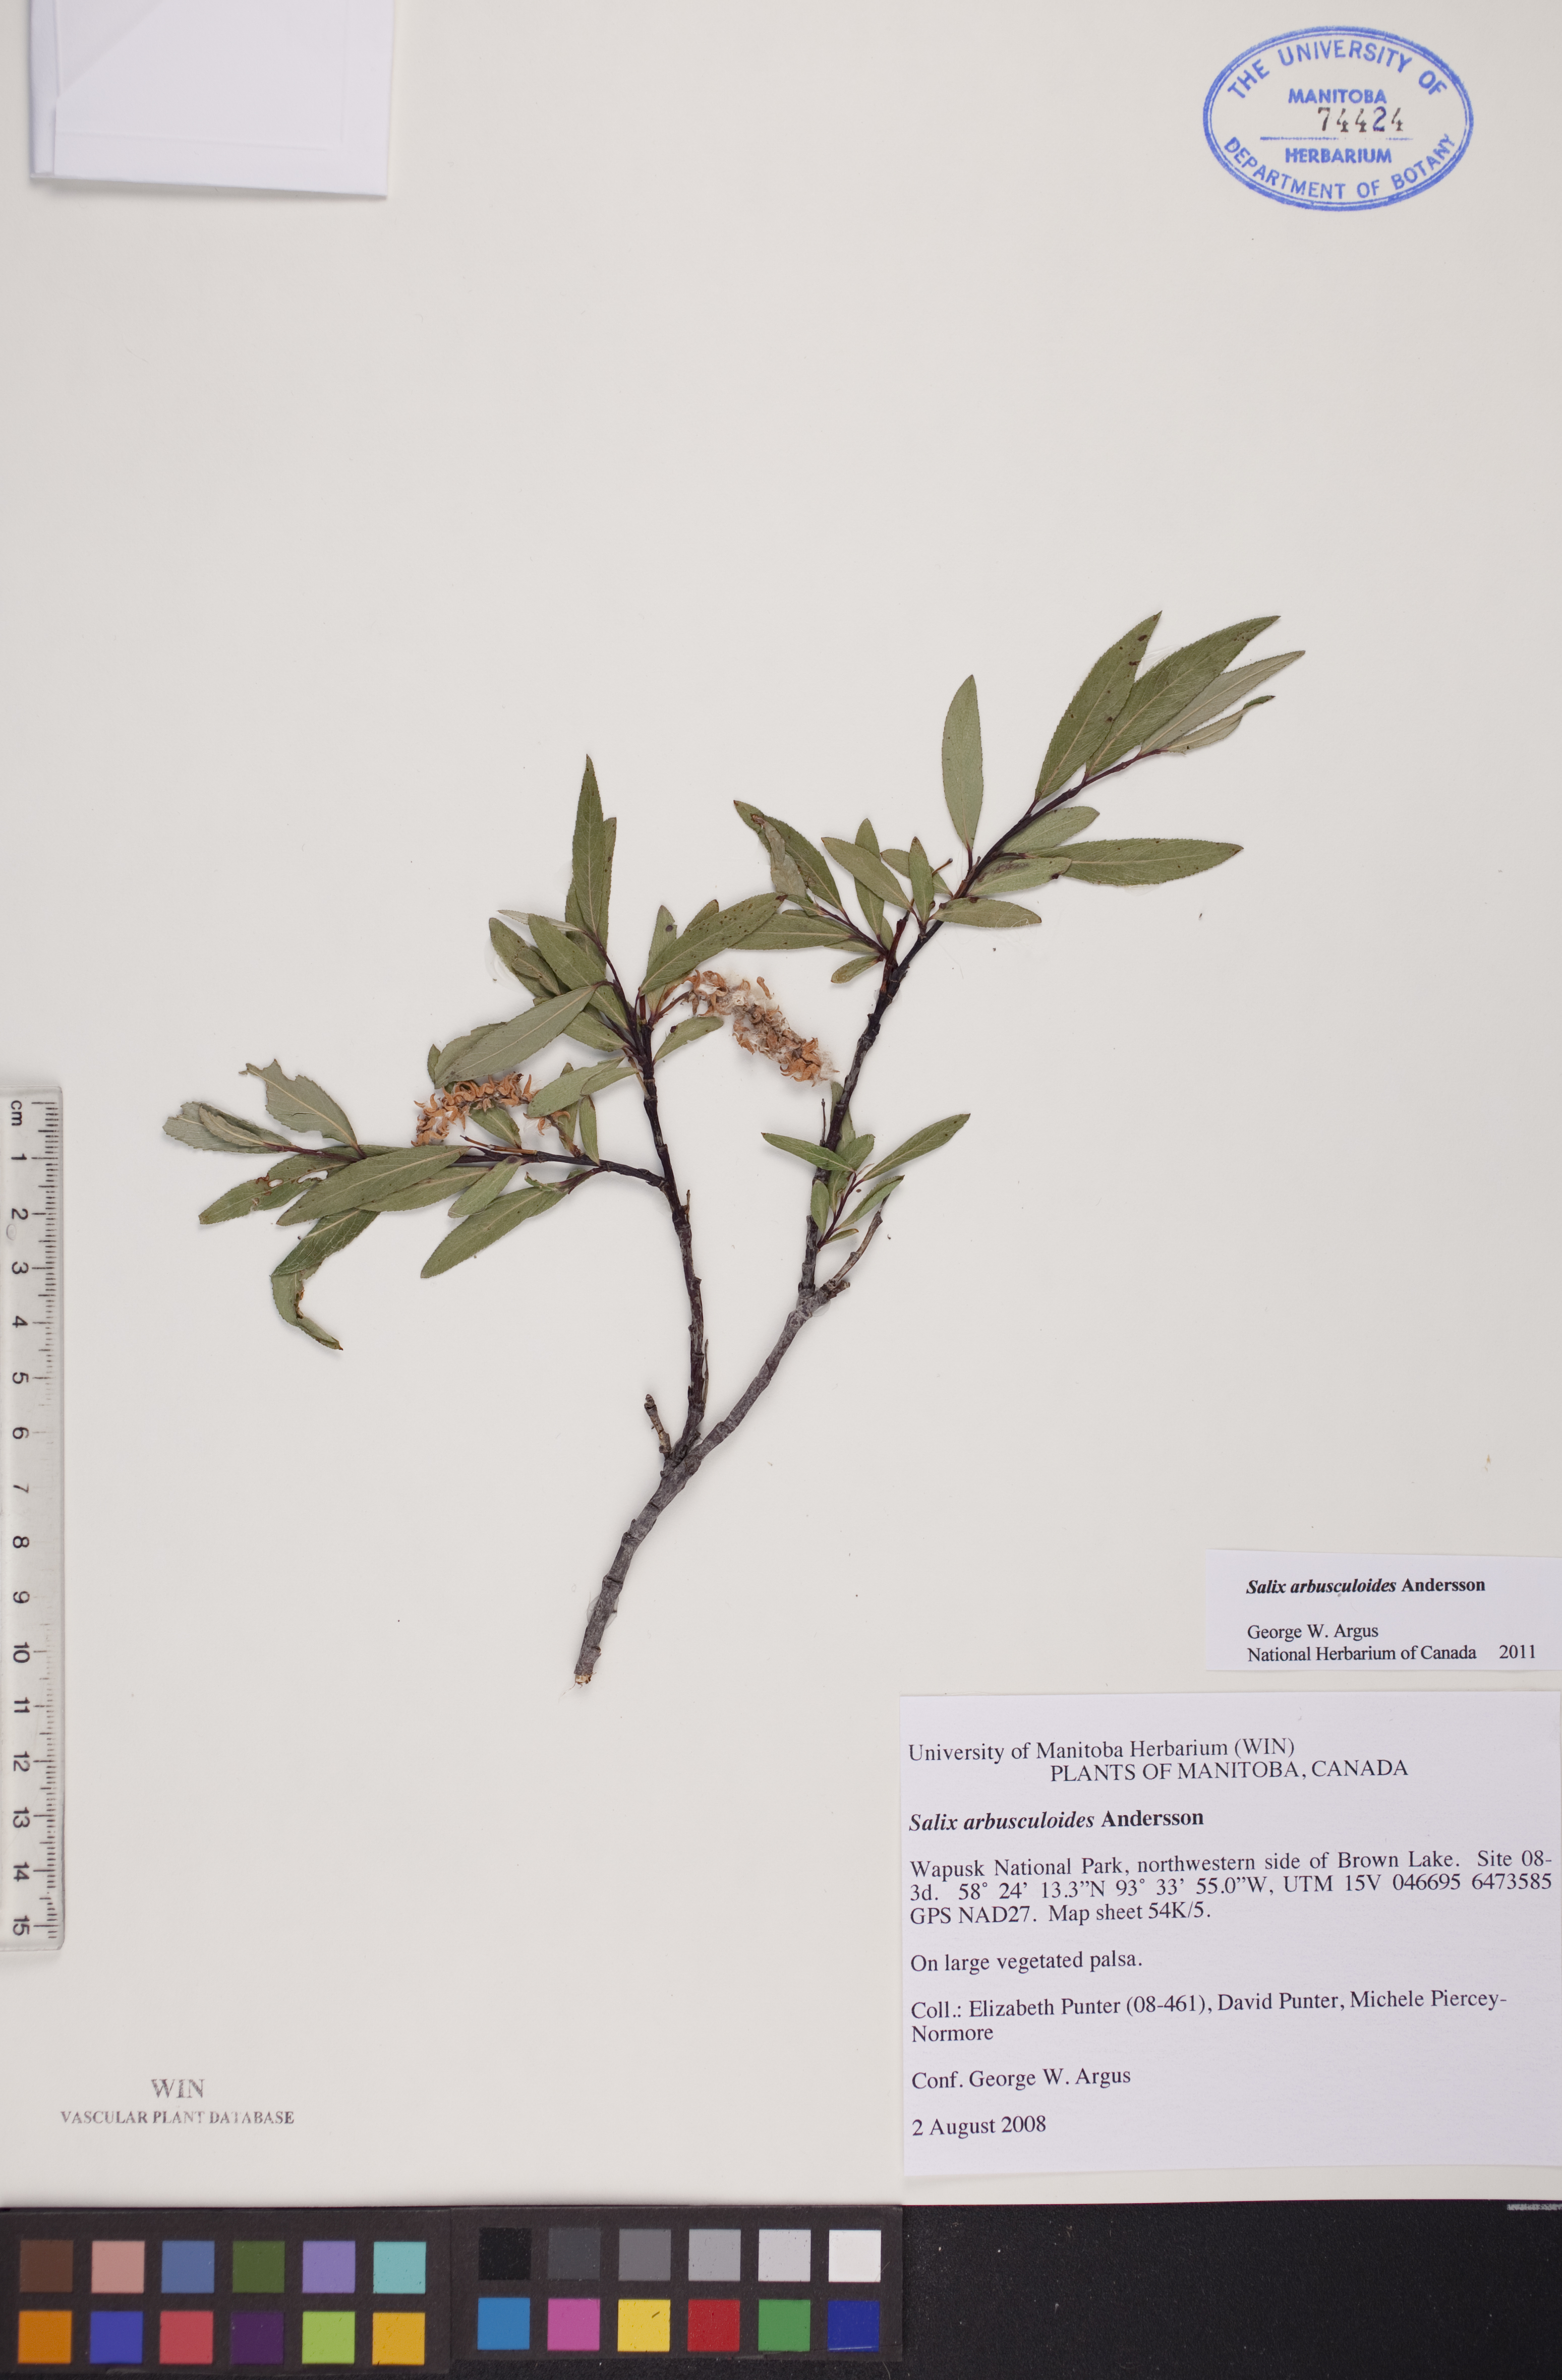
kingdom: Plantae
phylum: Tracheophyta
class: Magnoliopsida
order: Malpighiales
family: Salicaceae
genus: Salix
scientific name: Salix arbusculoides
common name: Little-tree willow
